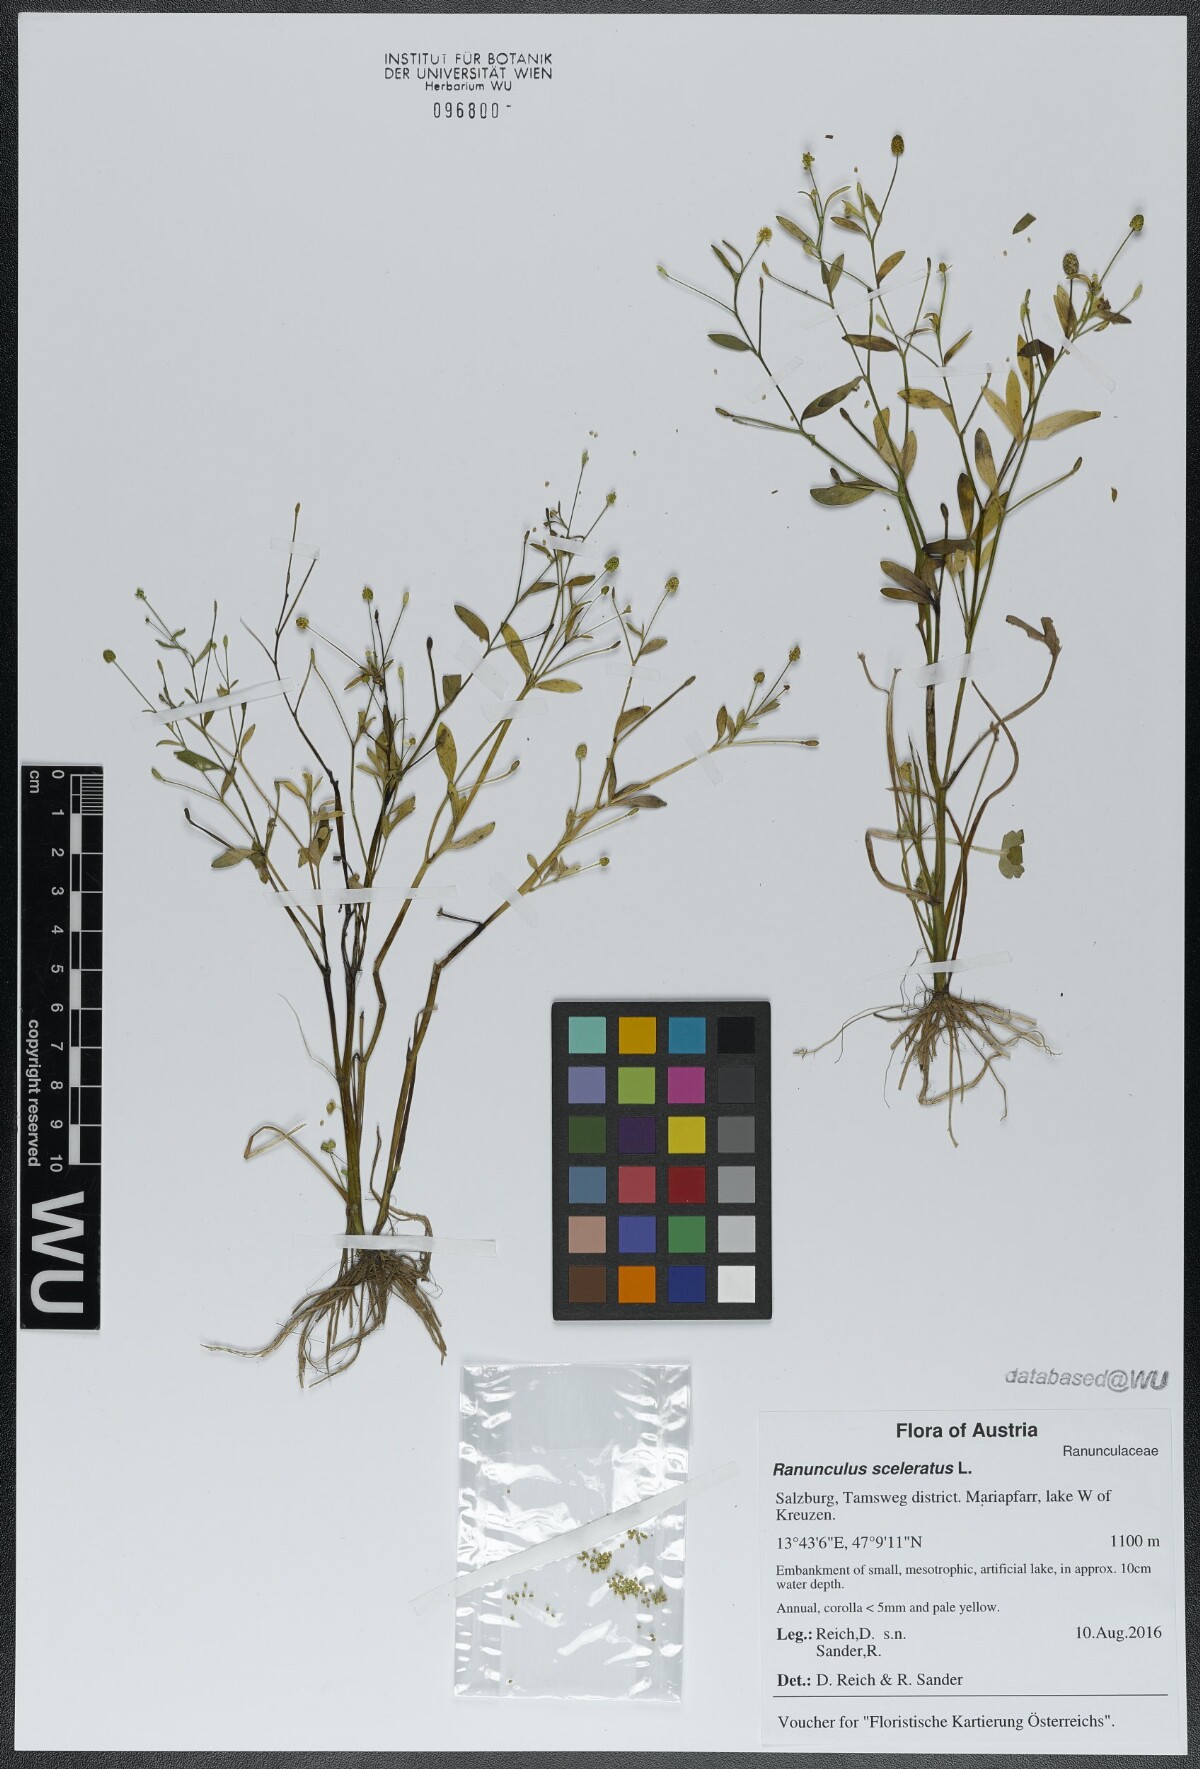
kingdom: Plantae
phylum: Tracheophyta
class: Magnoliopsida
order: Ranunculales
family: Ranunculaceae
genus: Ranunculus
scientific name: Ranunculus sceleratus
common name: Celery-leaved buttercup
